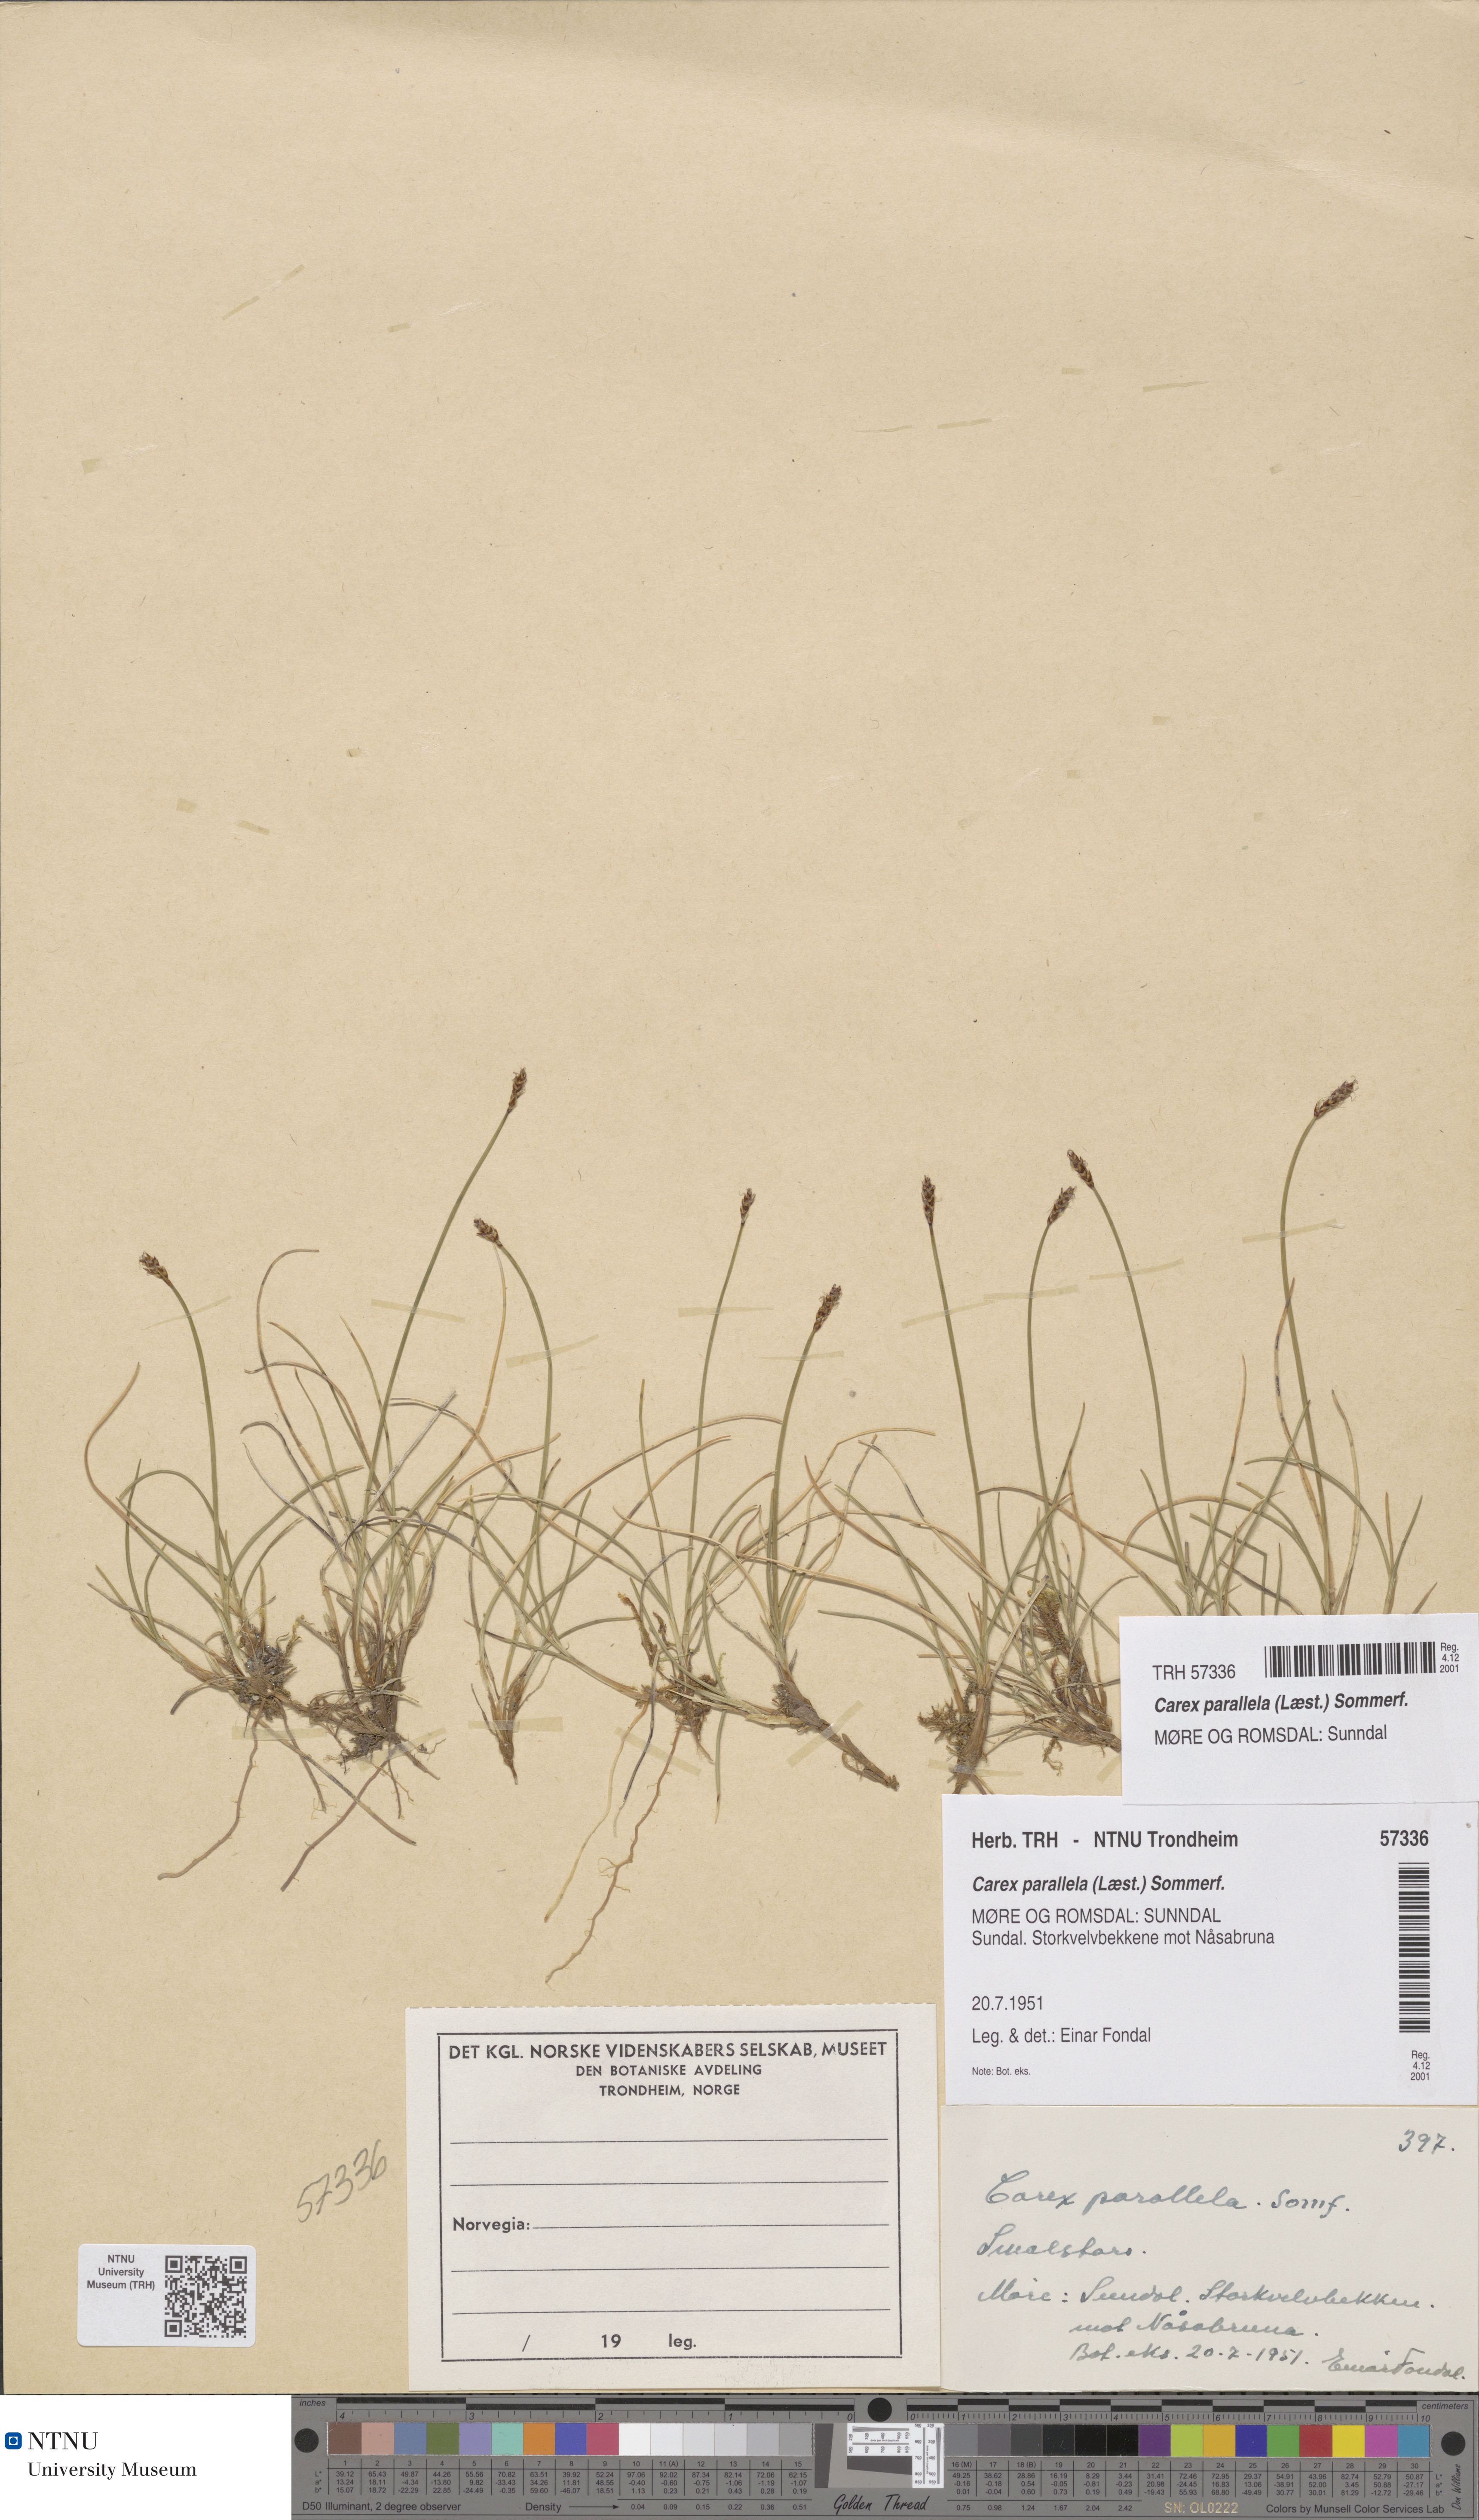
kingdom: Plantae
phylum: Tracheophyta
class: Liliopsida
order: Poales
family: Cyperaceae
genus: Carex
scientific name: Carex parallela
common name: Parallel sedge
